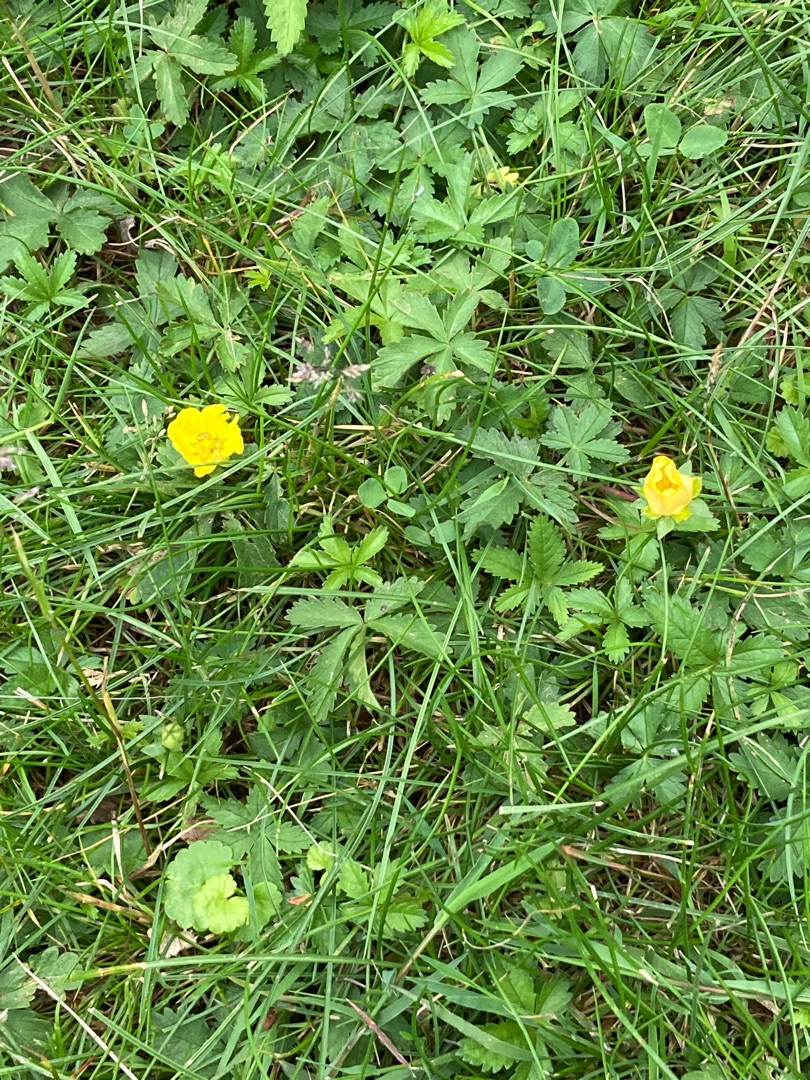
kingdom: Plantae
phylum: Tracheophyta
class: Magnoliopsida
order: Rosales
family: Rosaceae
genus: Potentilla
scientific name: Potentilla reptans
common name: Krybende potentil
